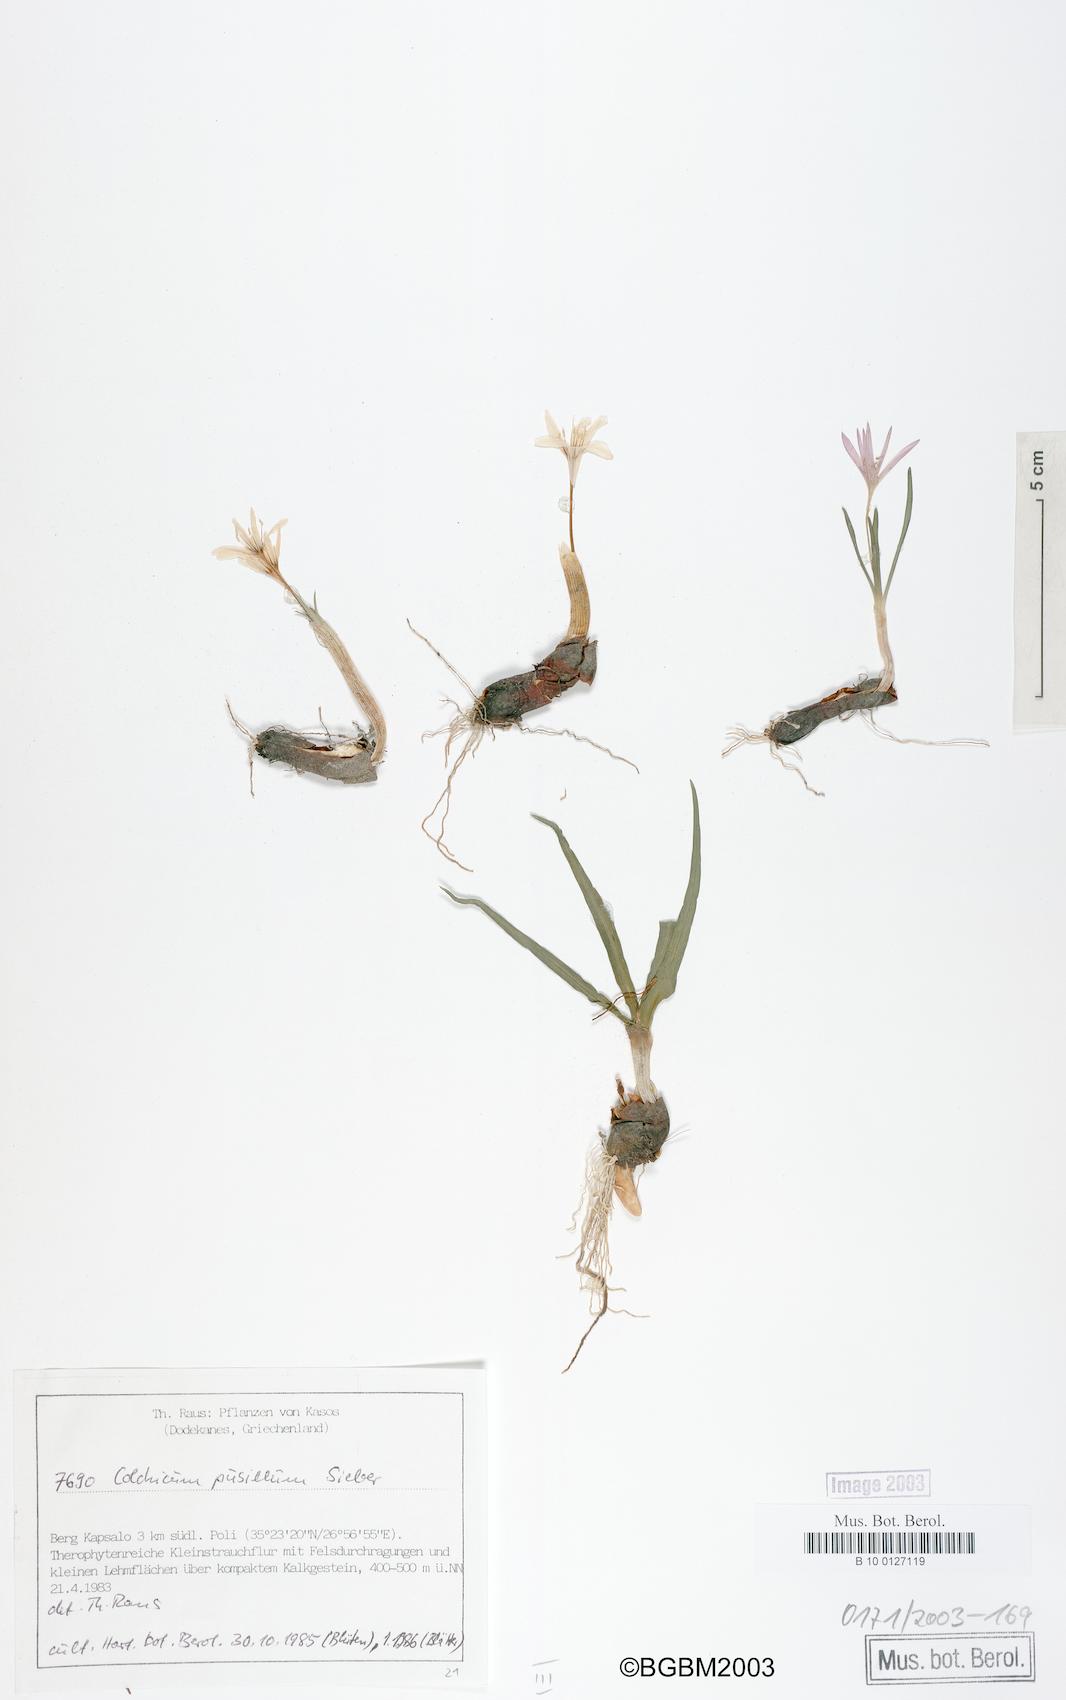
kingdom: Plantae
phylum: Tracheophyta
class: Liliopsida
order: Liliales
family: Colchicaceae
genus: Colchicum
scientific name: Colchicum pusillum
